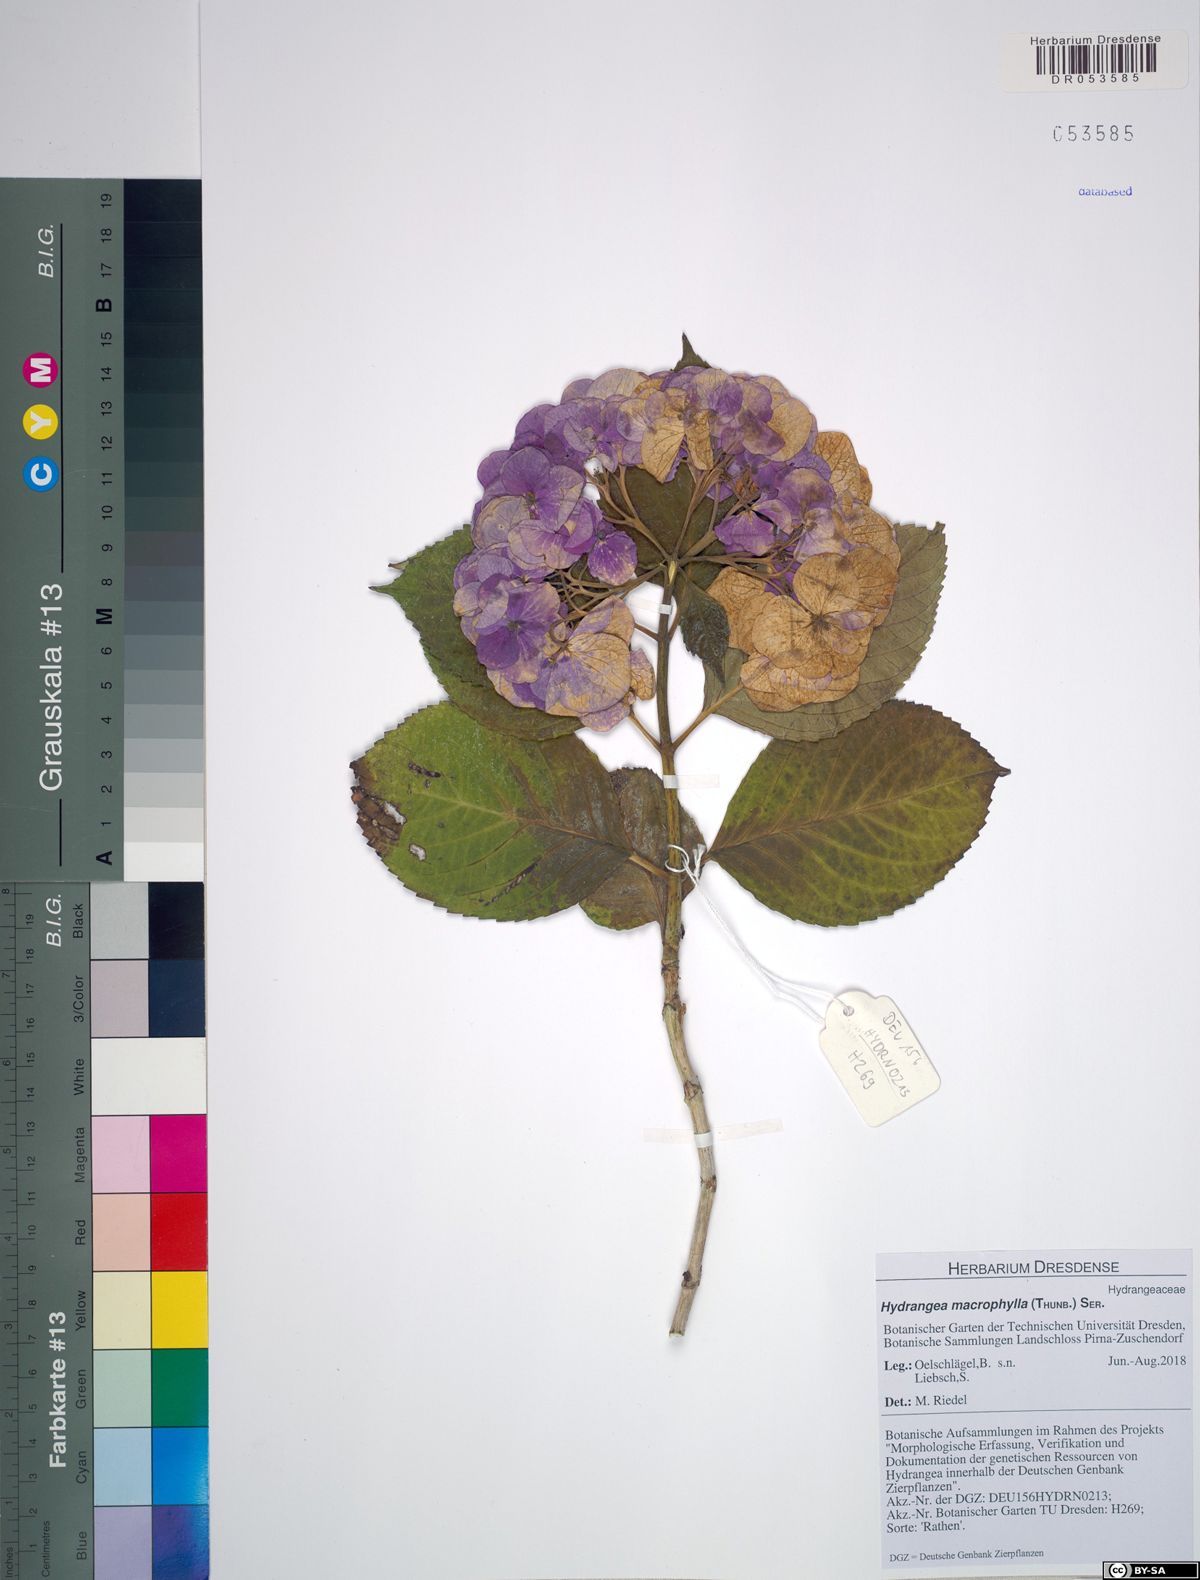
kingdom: Plantae
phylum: Tracheophyta
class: Magnoliopsida
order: Cornales
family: Hydrangeaceae
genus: Hydrangea
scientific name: Hydrangea macrophylla
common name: Hydrangea
